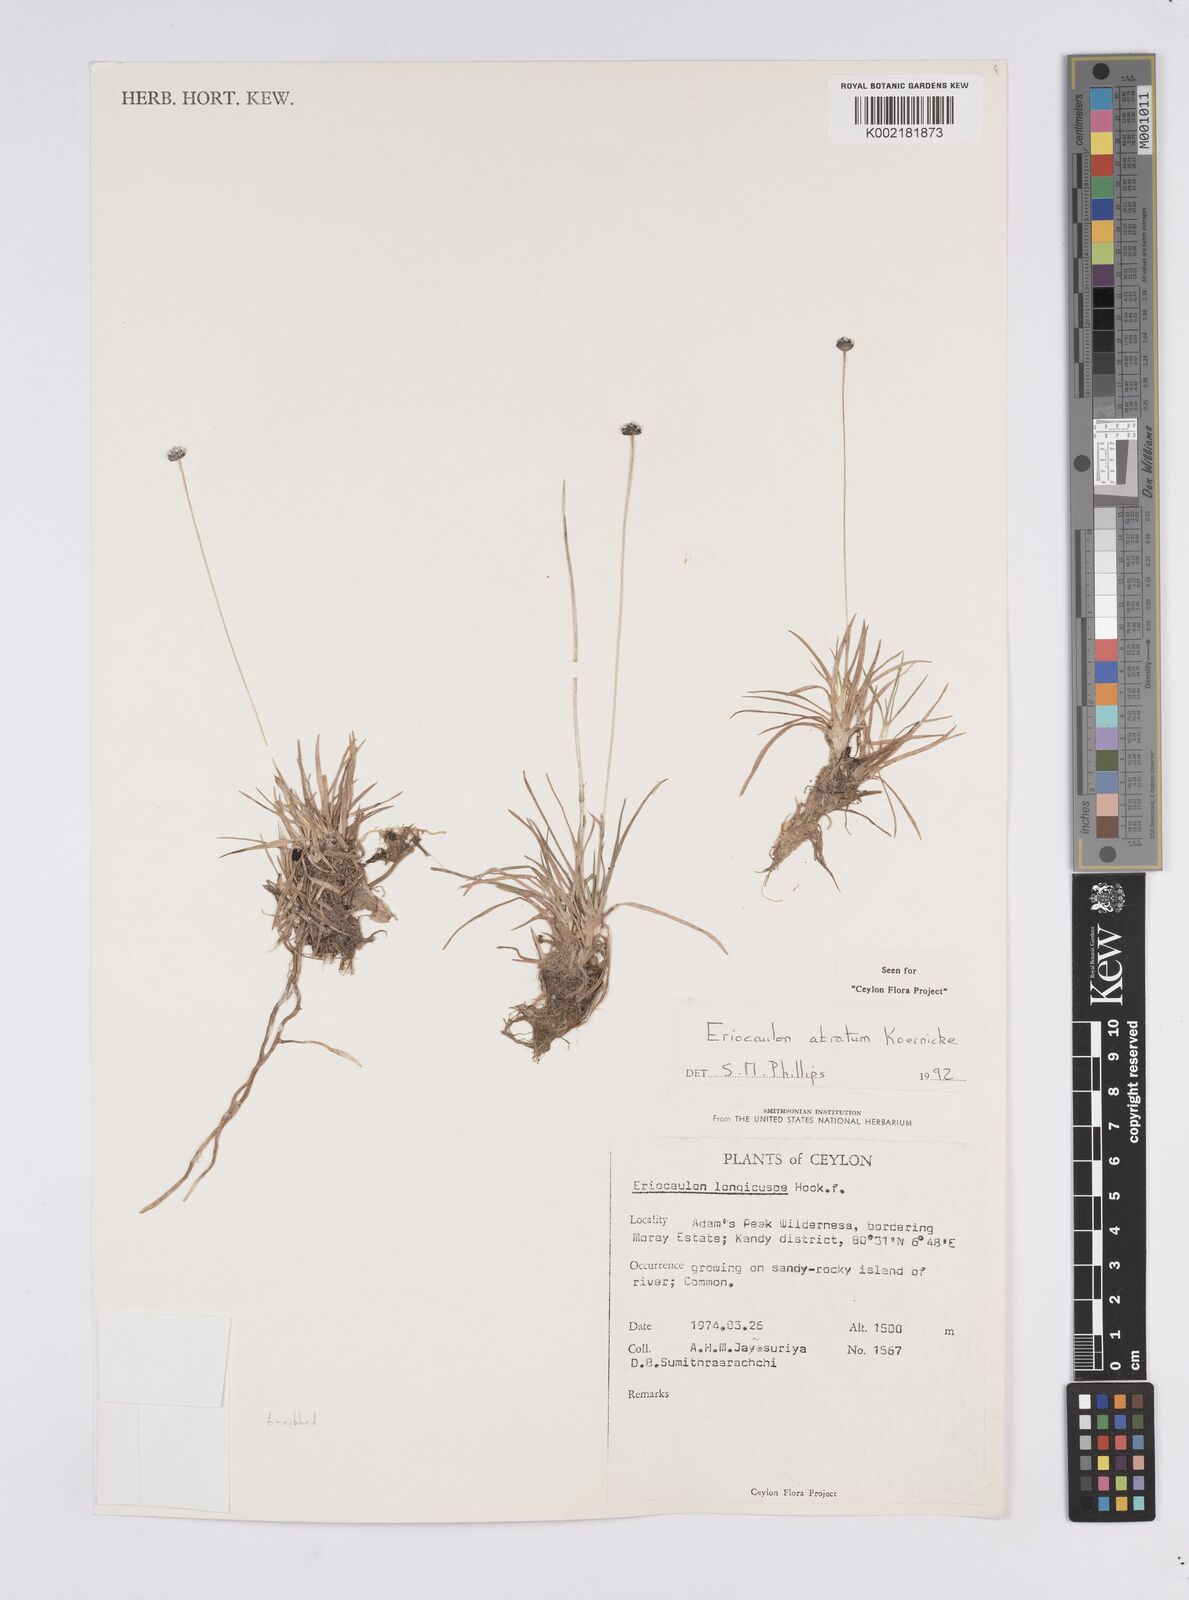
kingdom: Plantae
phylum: Tracheophyta
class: Liliopsida
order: Poales
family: Eriocaulaceae
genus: Eriocaulon
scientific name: Eriocaulon atratum
